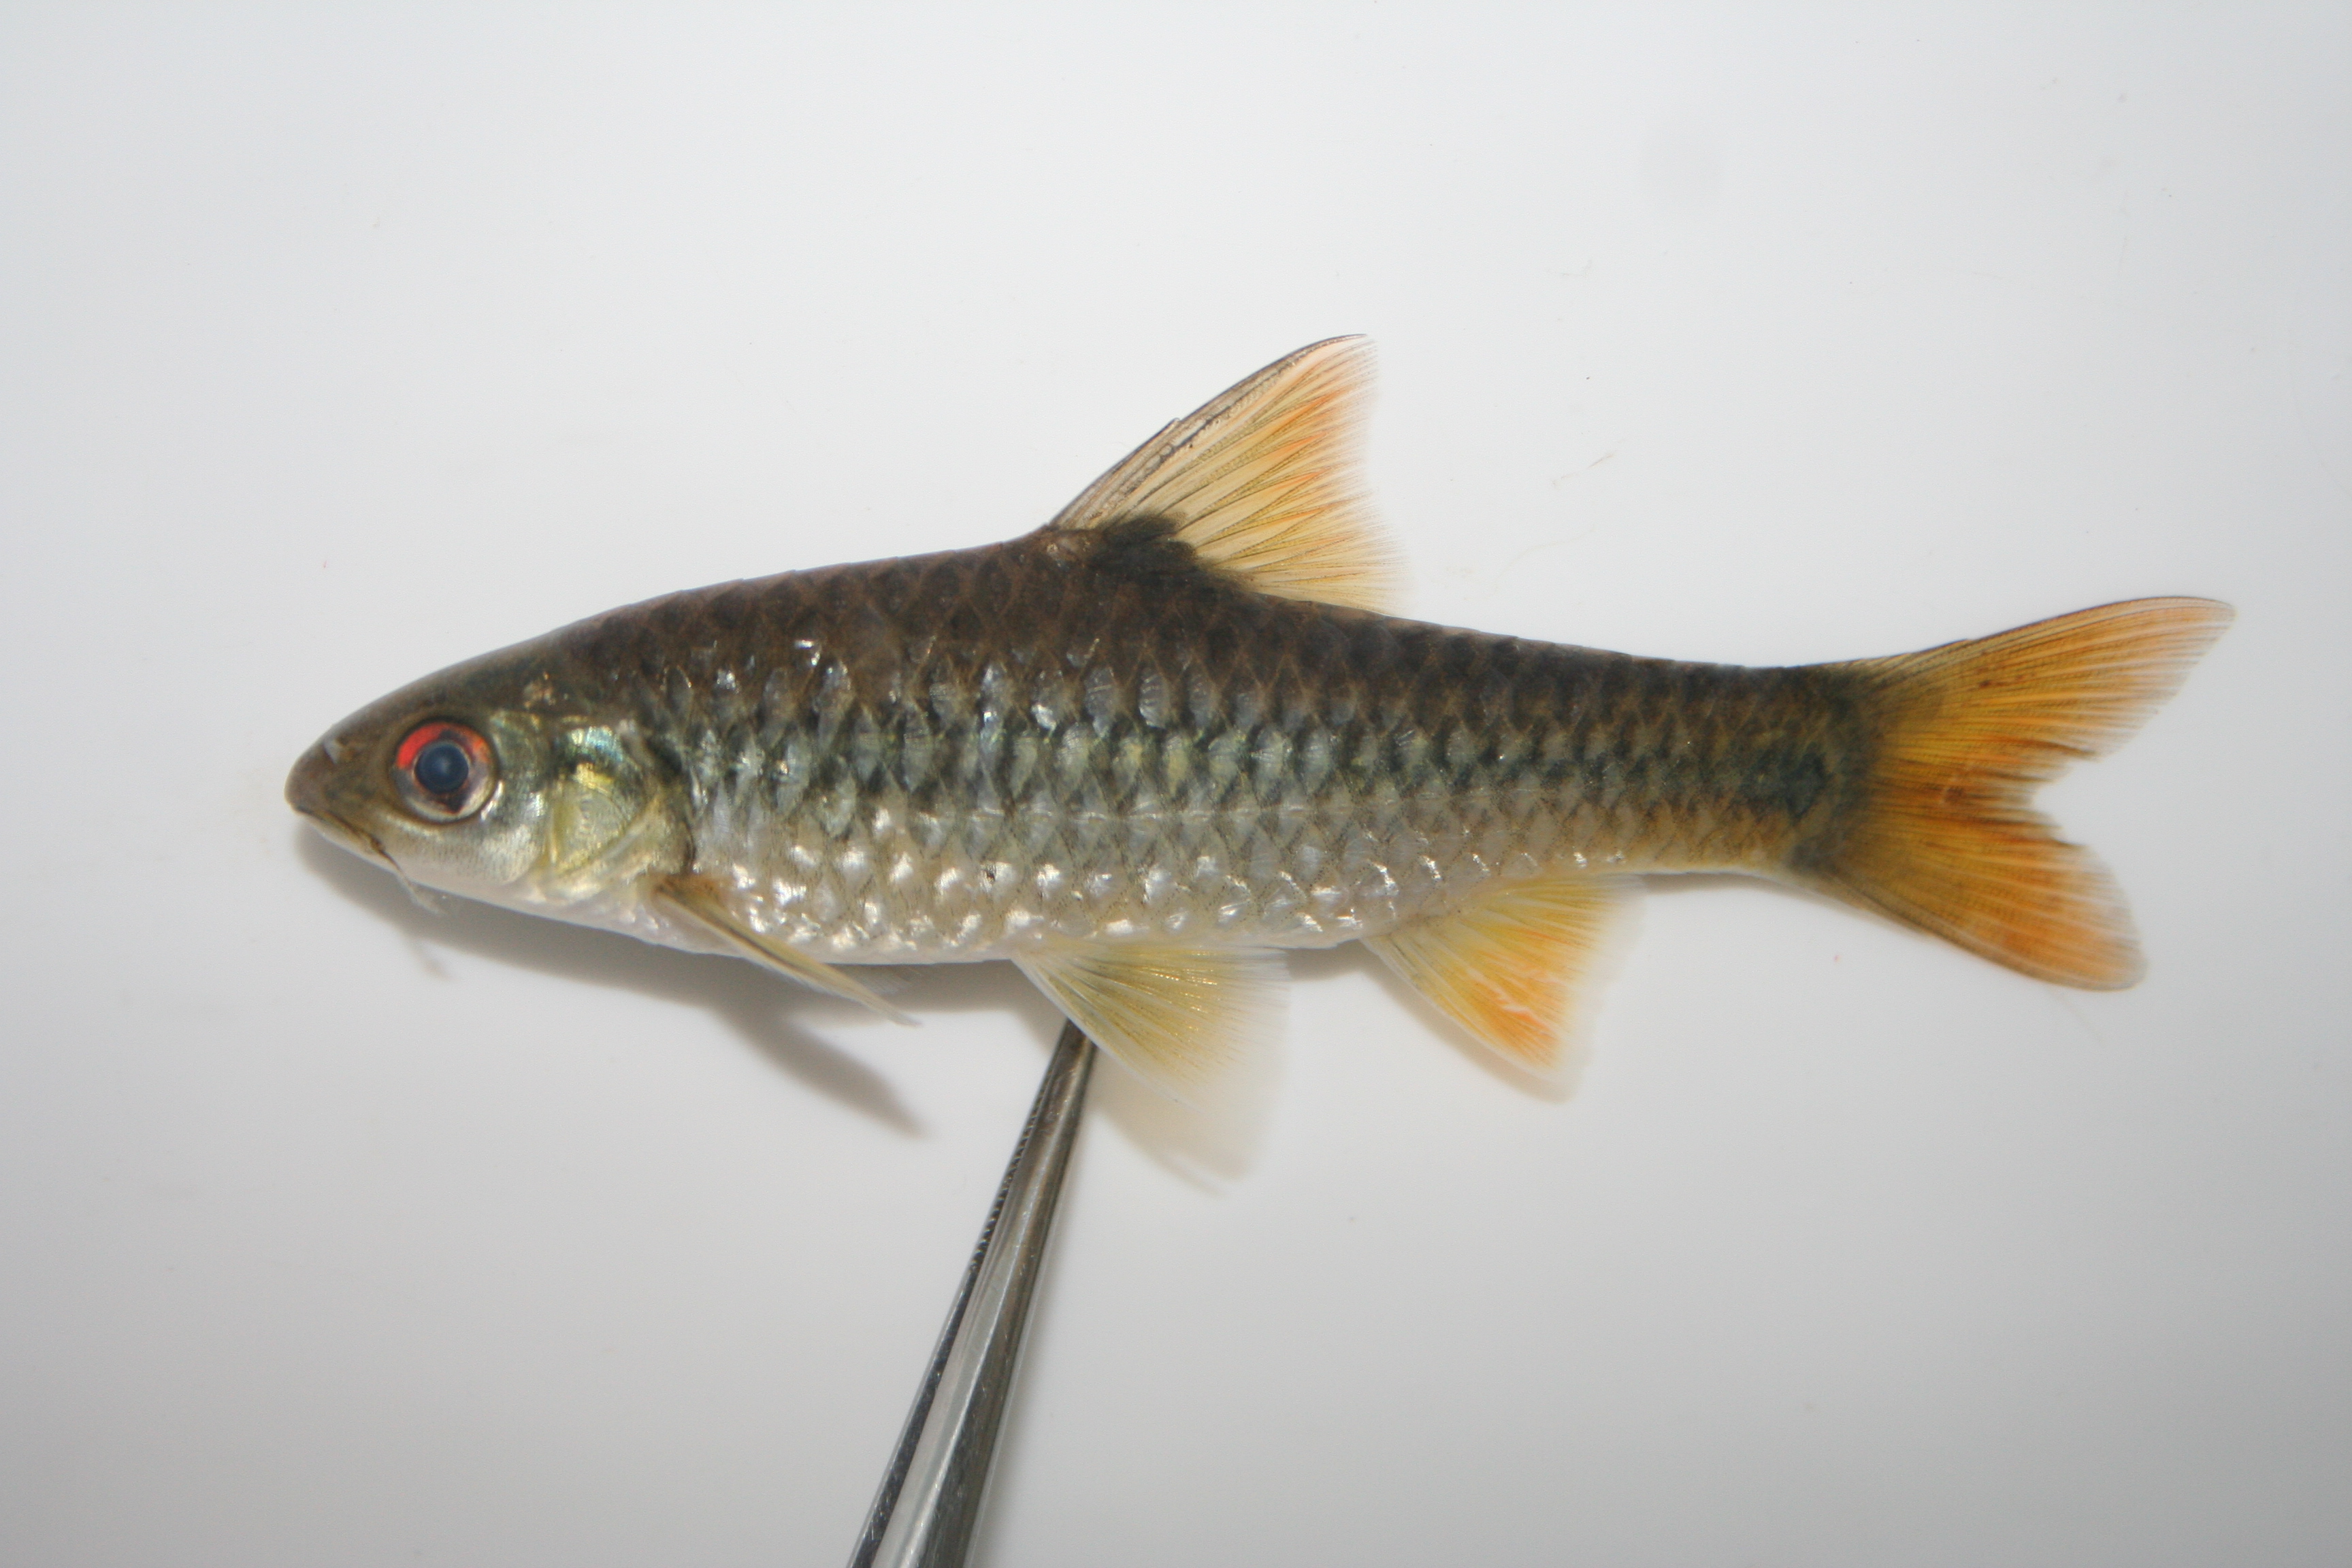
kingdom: Animalia
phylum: Chordata
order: Cypriniformes
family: Cyprinidae
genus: Enteromius
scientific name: Enteromius kerstenii
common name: Redspot barb
